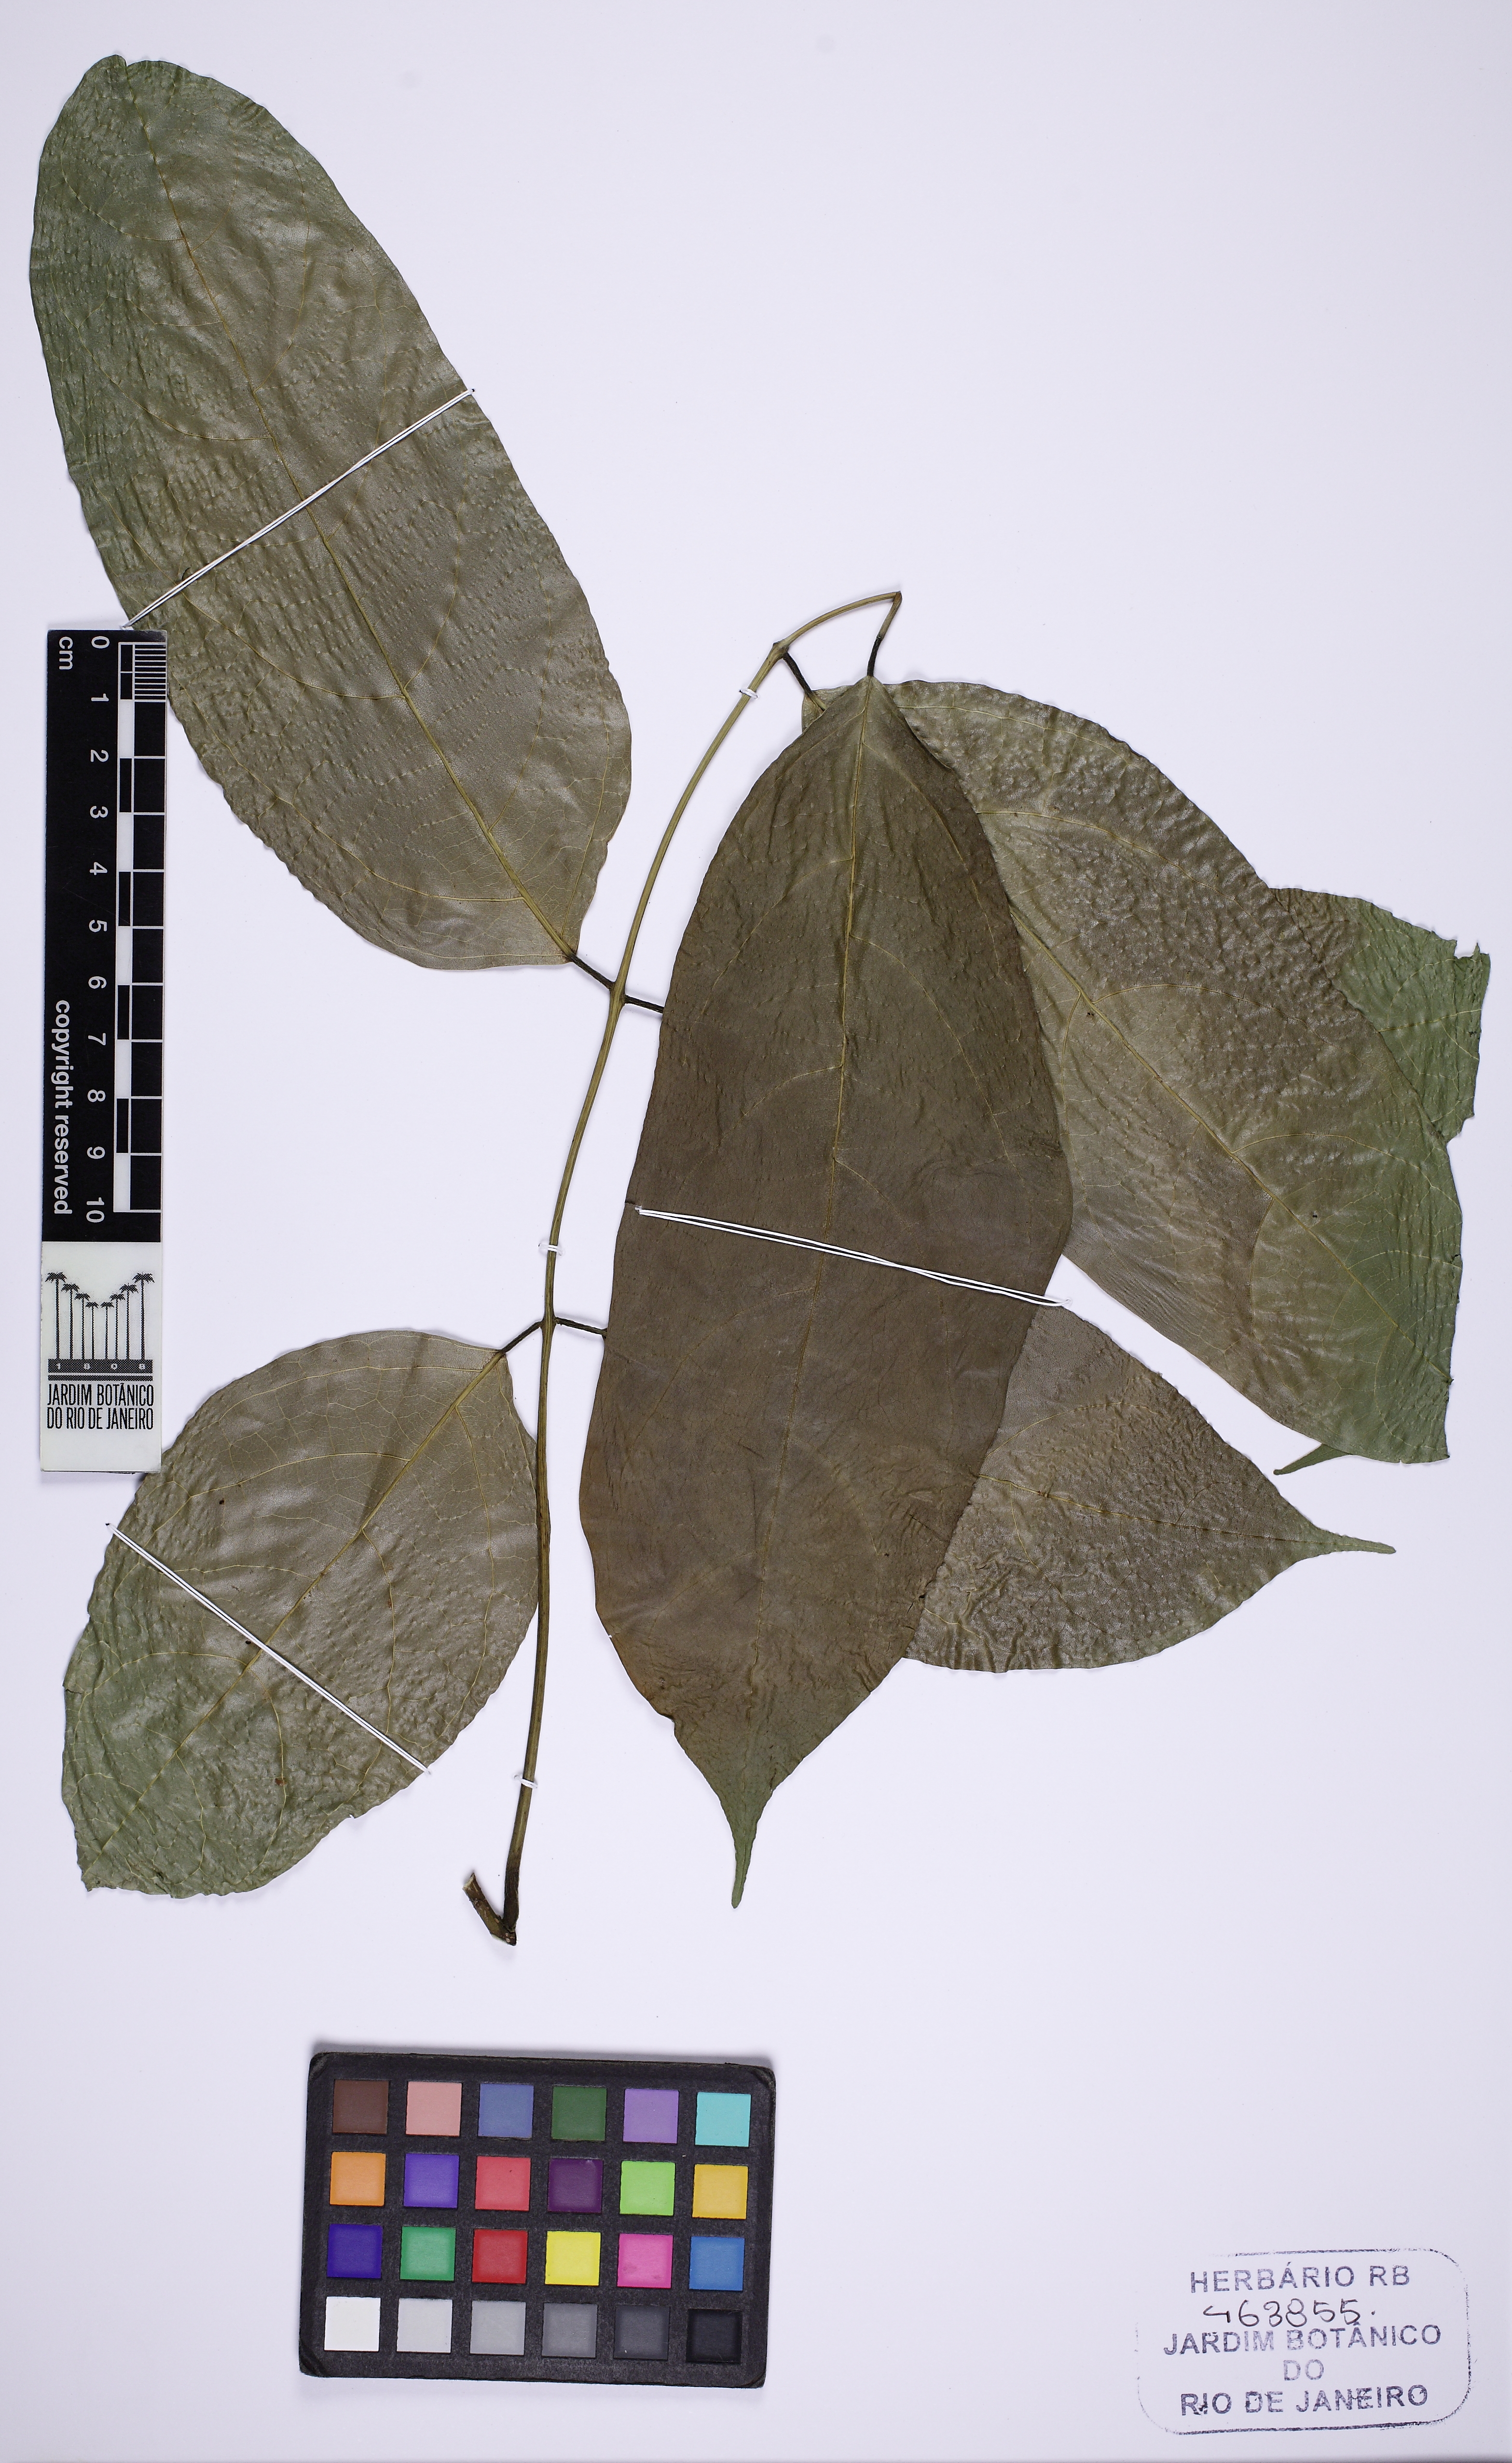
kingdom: Plantae
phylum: Tracheophyta
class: Magnoliopsida
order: Fabales
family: Fabaceae
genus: Dahlstedtia
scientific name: Dahlstedtia pinnata
